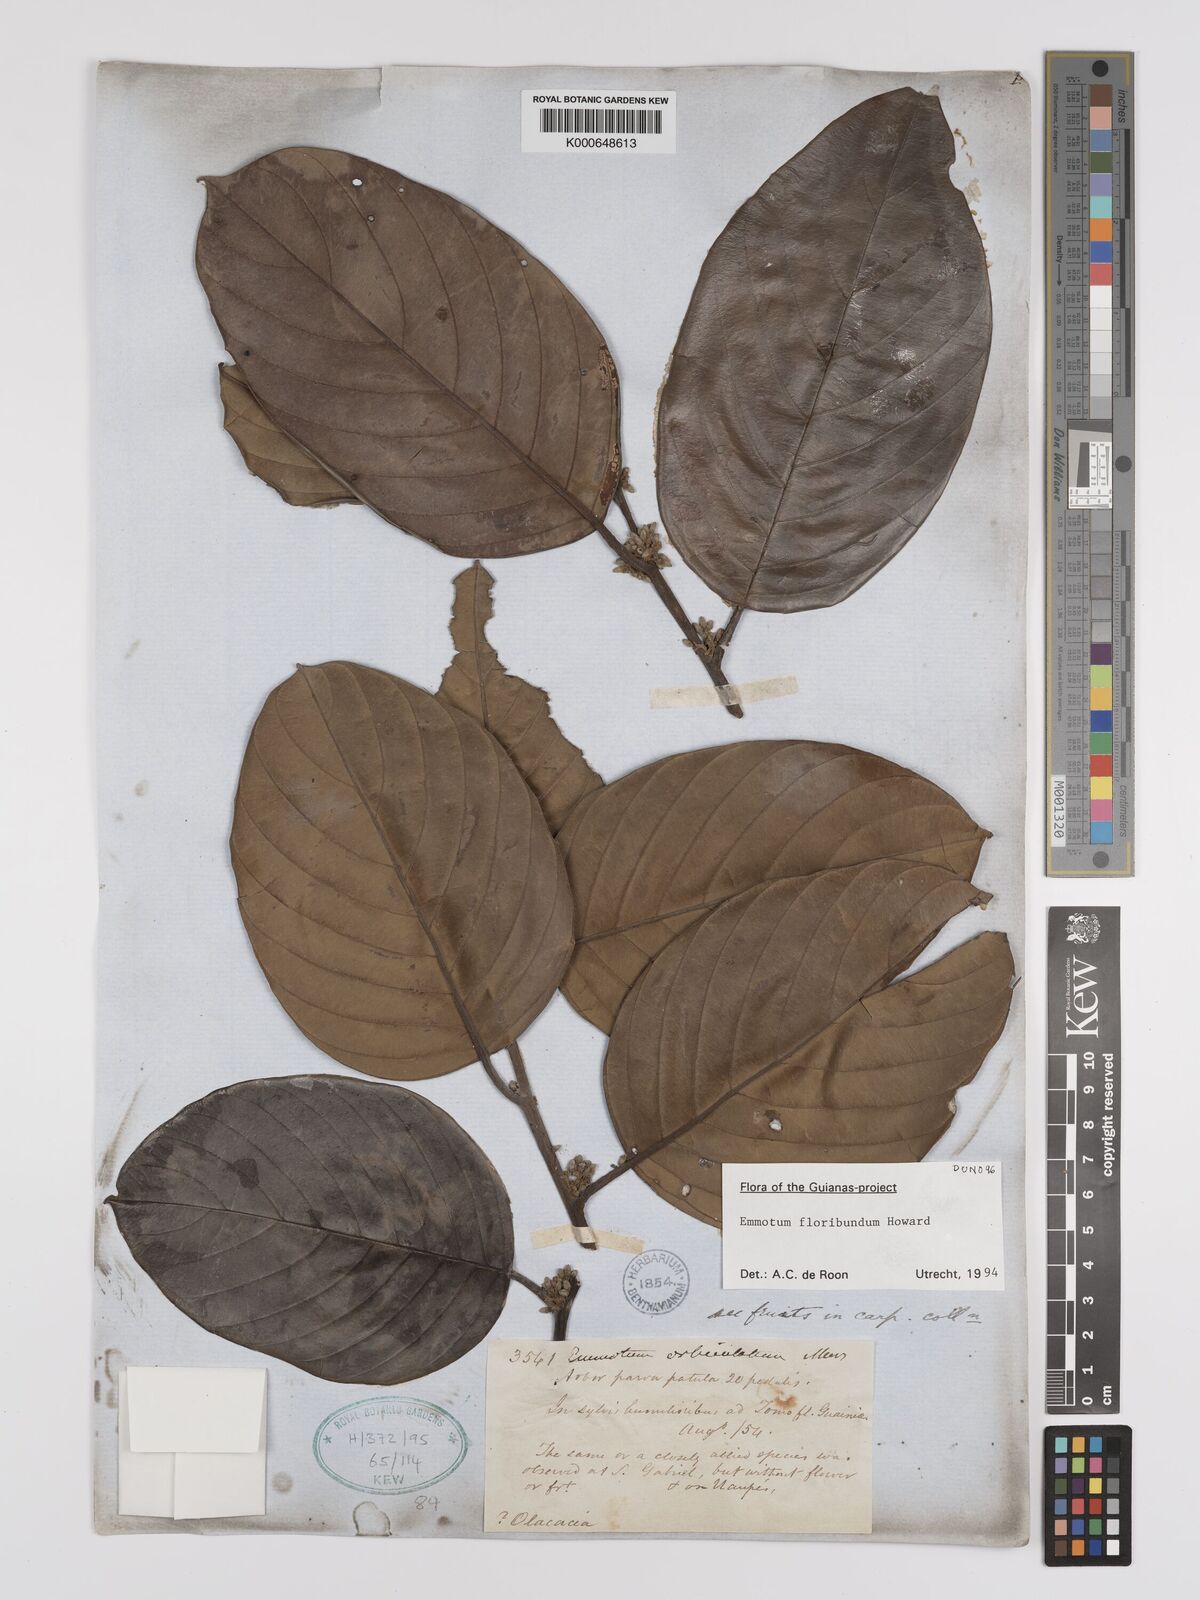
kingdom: Plantae
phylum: Tracheophyta
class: Magnoliopsida
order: Metteniusales
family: Metteniusaceae
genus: Emmotum
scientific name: Emmotum floribundum
